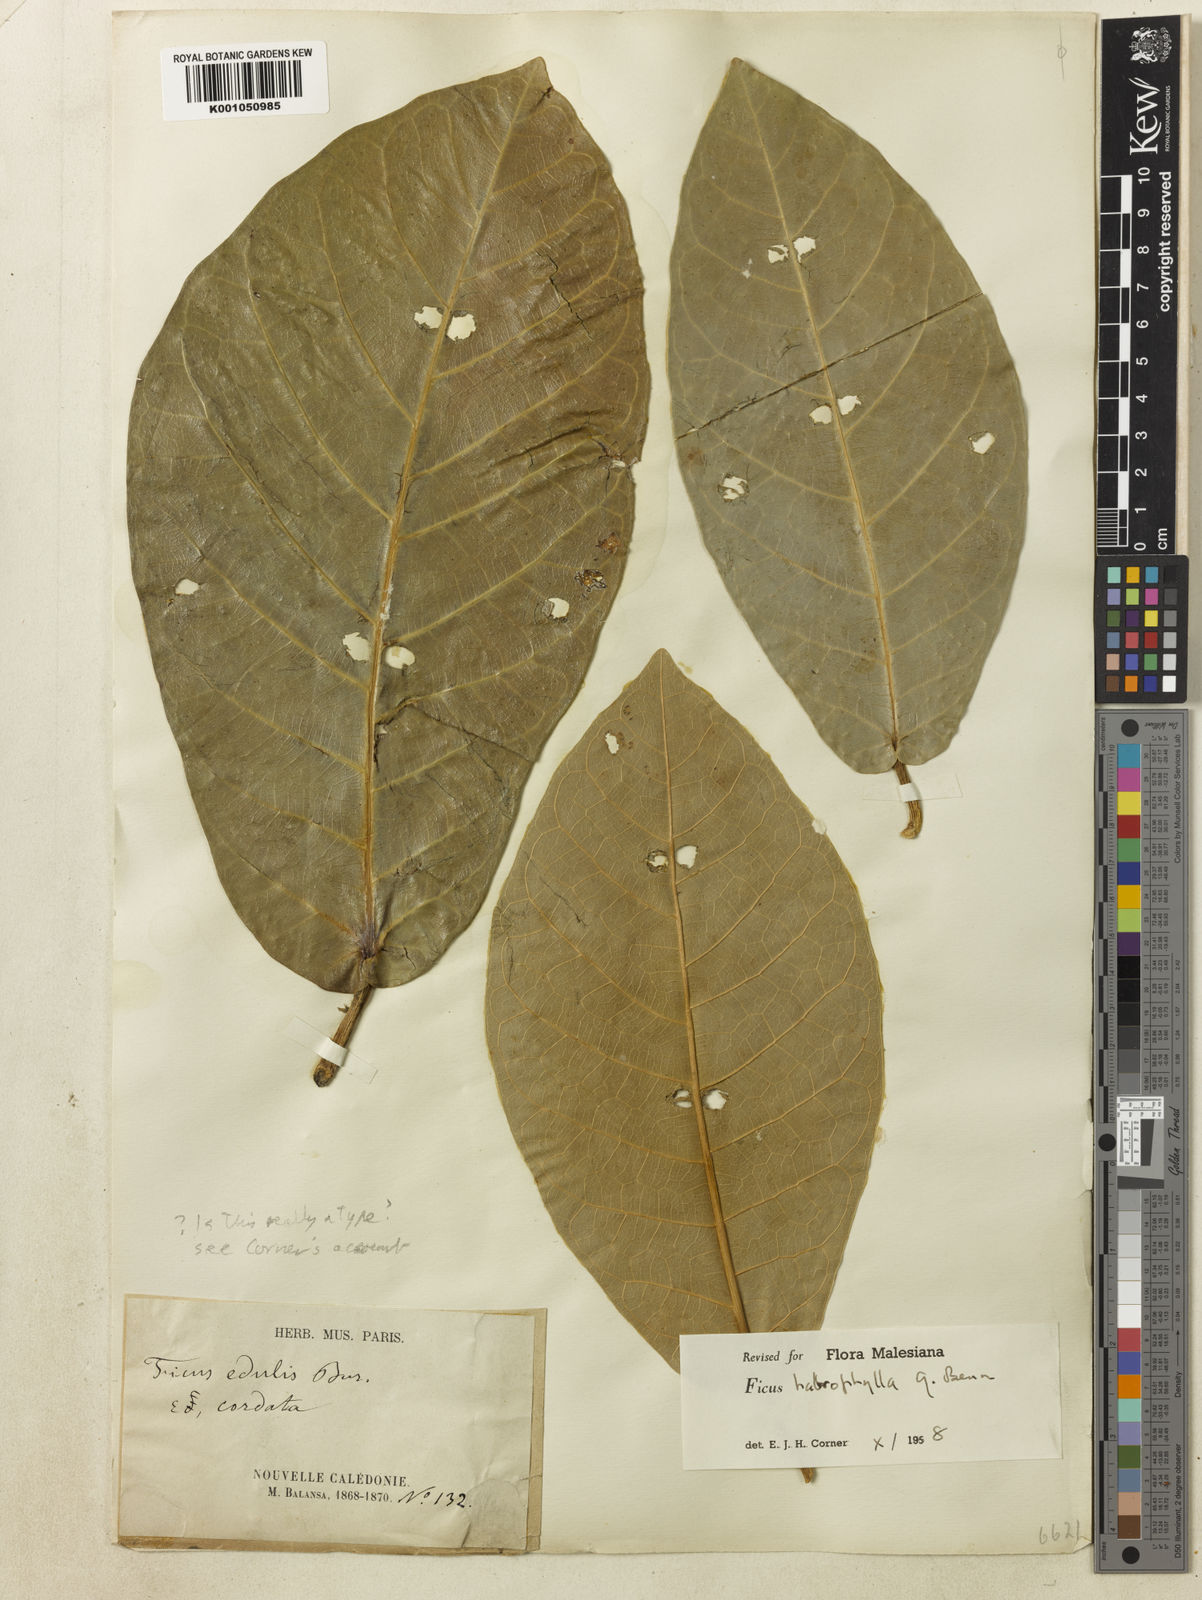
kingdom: Plantae
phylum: Tracheophyta
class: Magnoliopsida
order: Rosales
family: Moraceae
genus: Ficus
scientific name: Ficus
